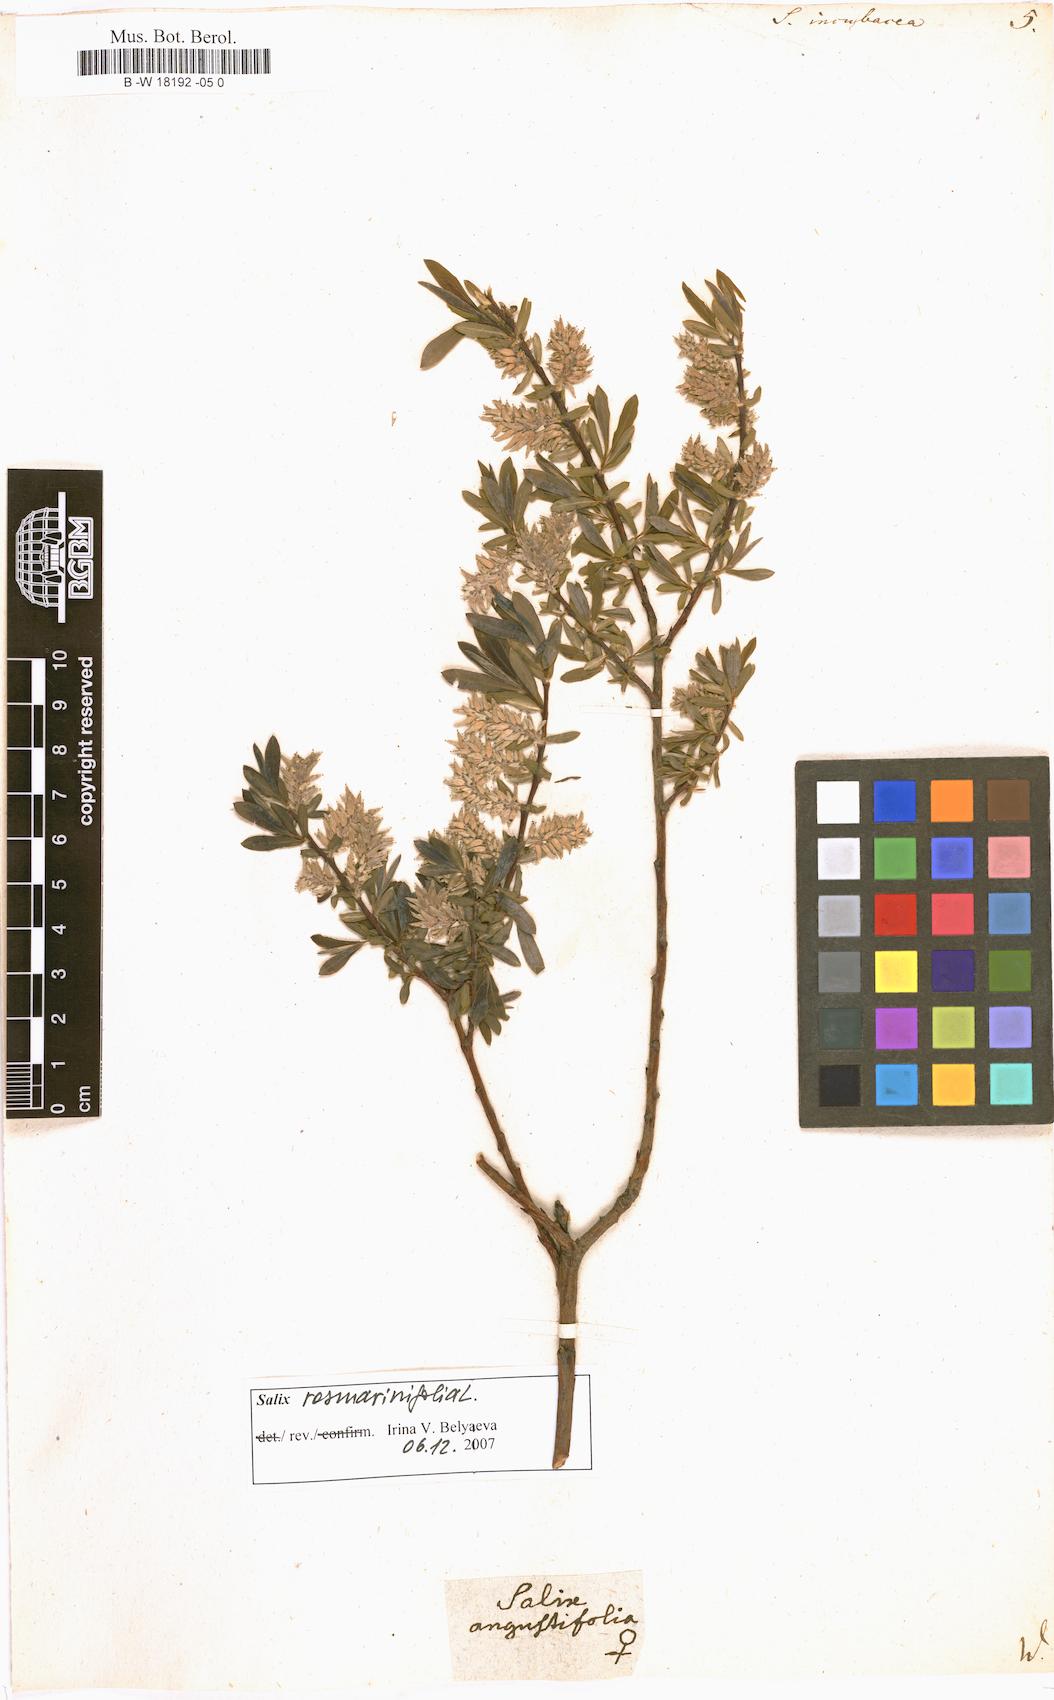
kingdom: Plantae
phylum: Tracheophyta
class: Magnoliopsida
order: Malpighiales
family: Salicaceae
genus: Salix
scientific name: Salix incubacea
